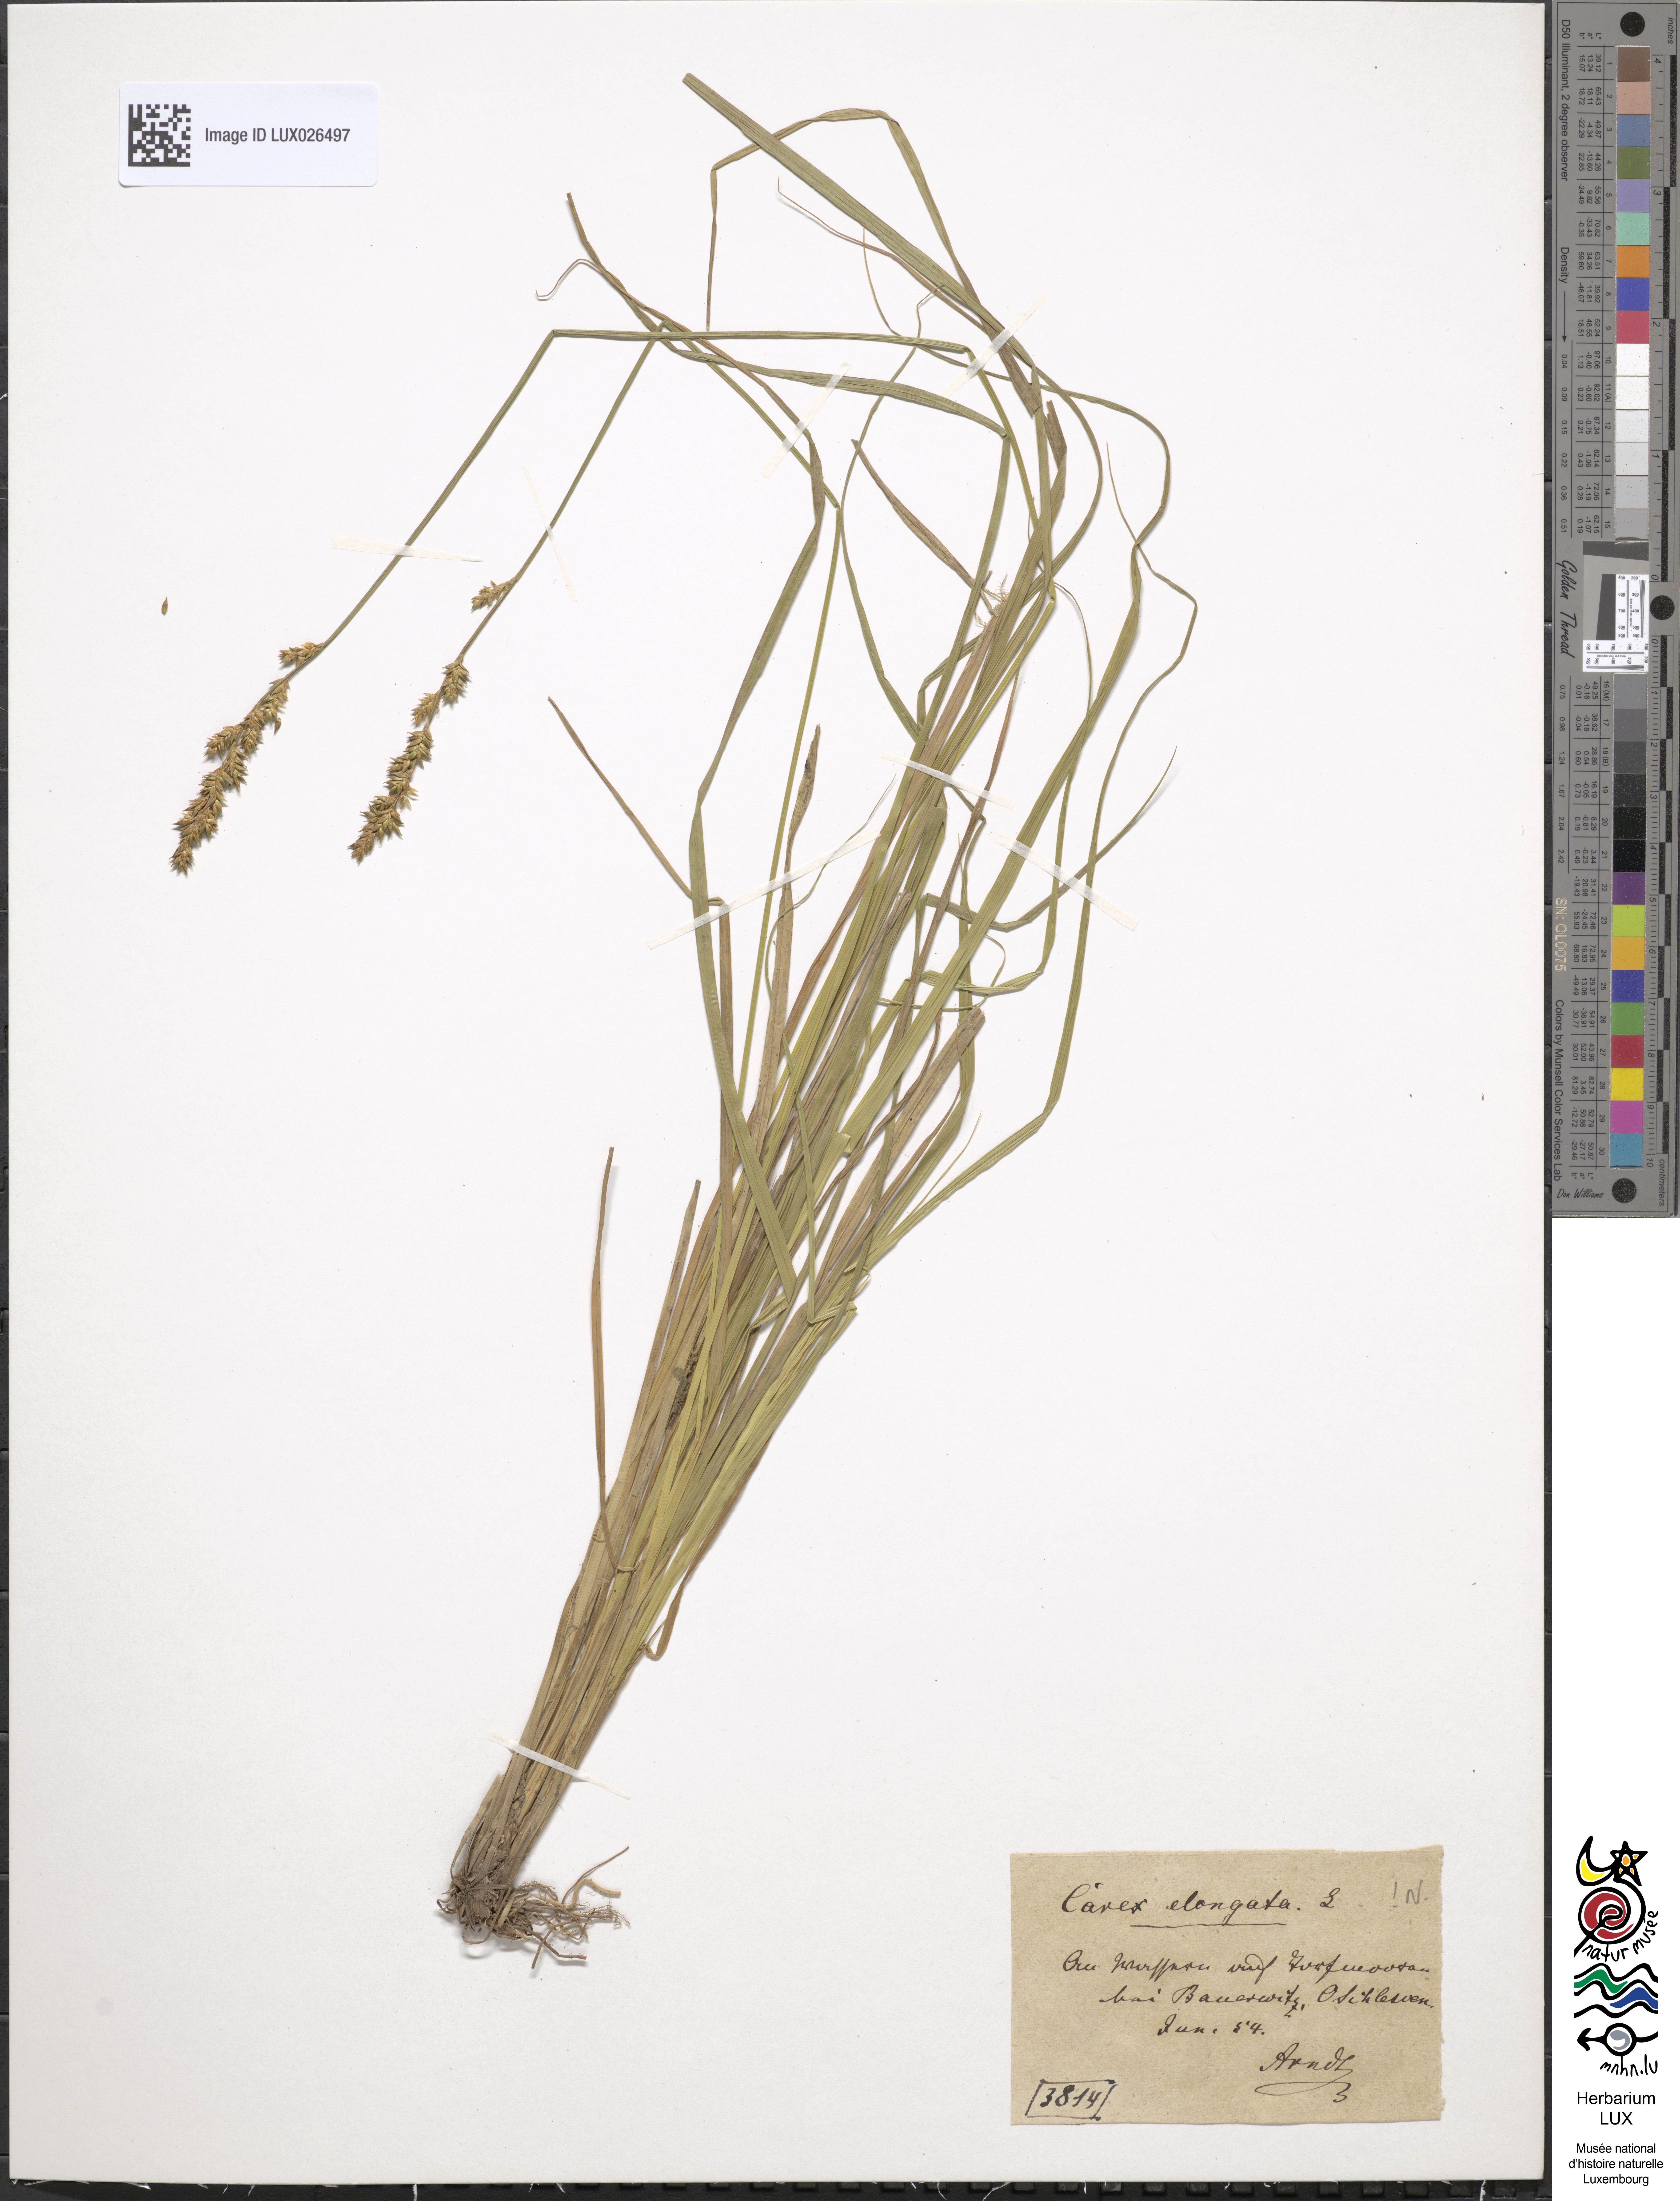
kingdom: Plantae
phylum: Tracheophyta
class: Liliopsida
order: Poales
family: Cyperaceae
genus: Carex
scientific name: Carex elongata
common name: Elongated sedge
